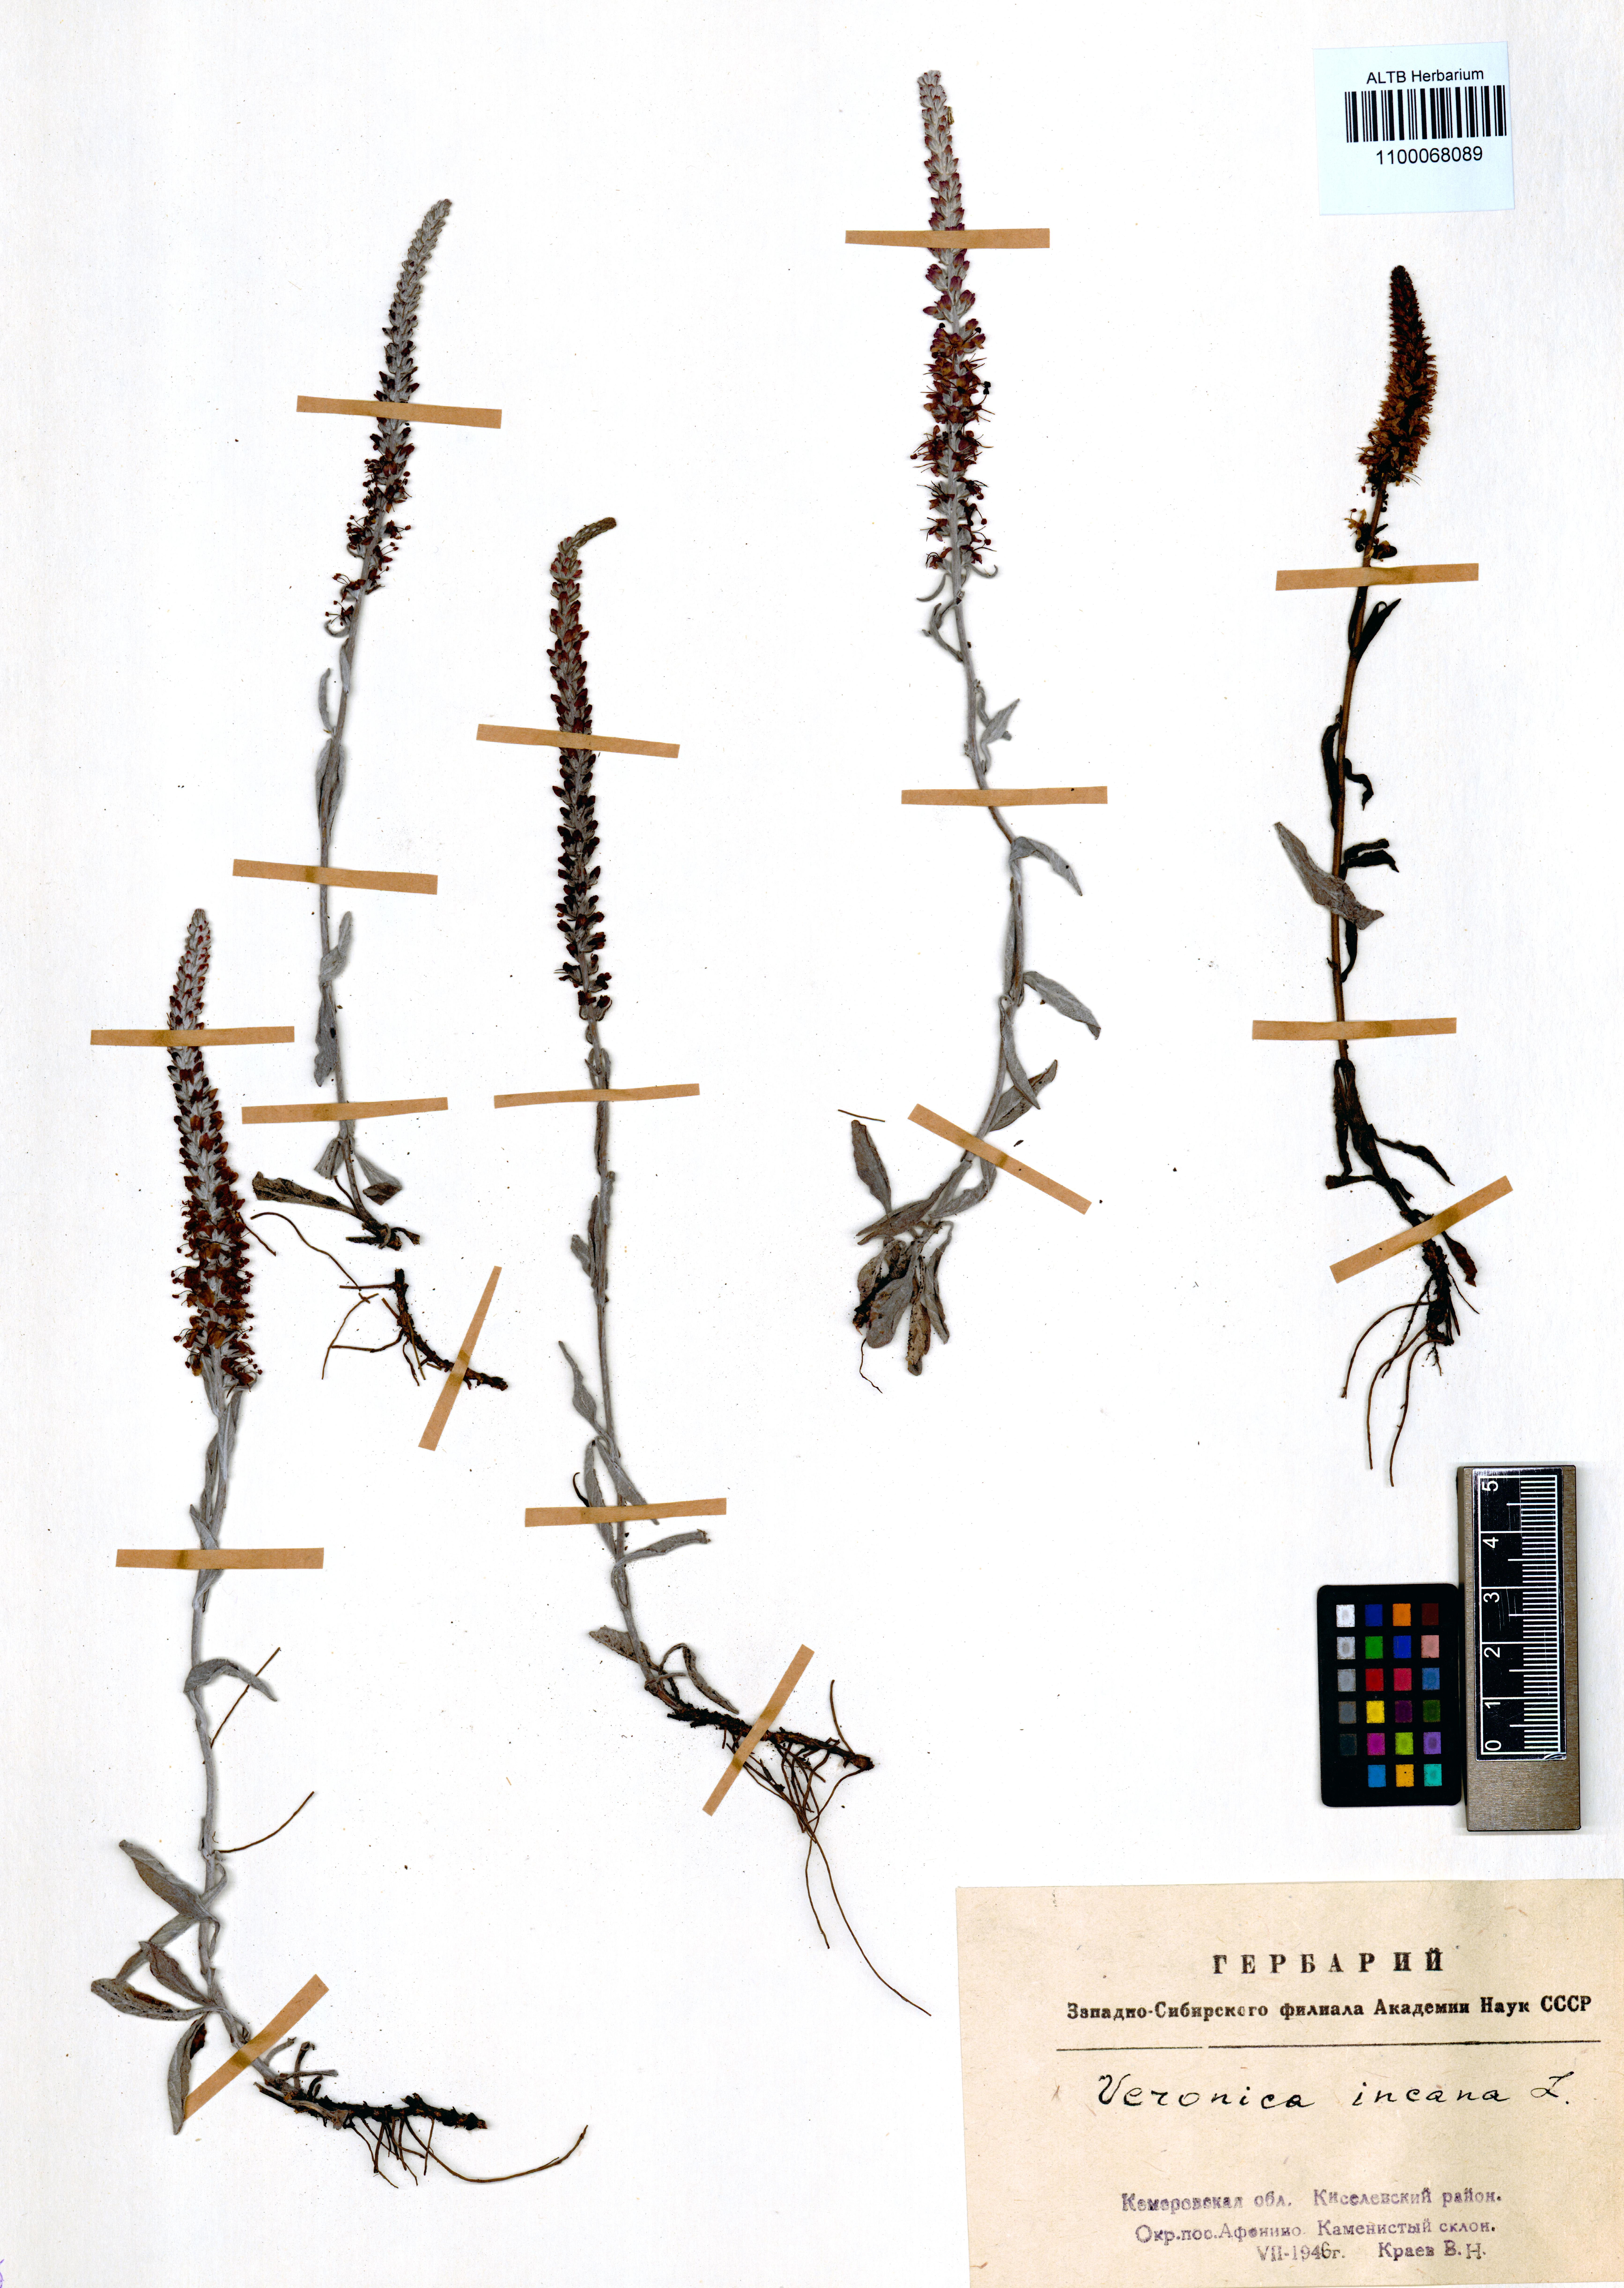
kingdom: Plantae
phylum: Tracheophyta
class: Magnoliopsida
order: Lamiales
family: Plantaginaceae
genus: Veronica
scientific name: Veronica incana
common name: Silver speedwell
